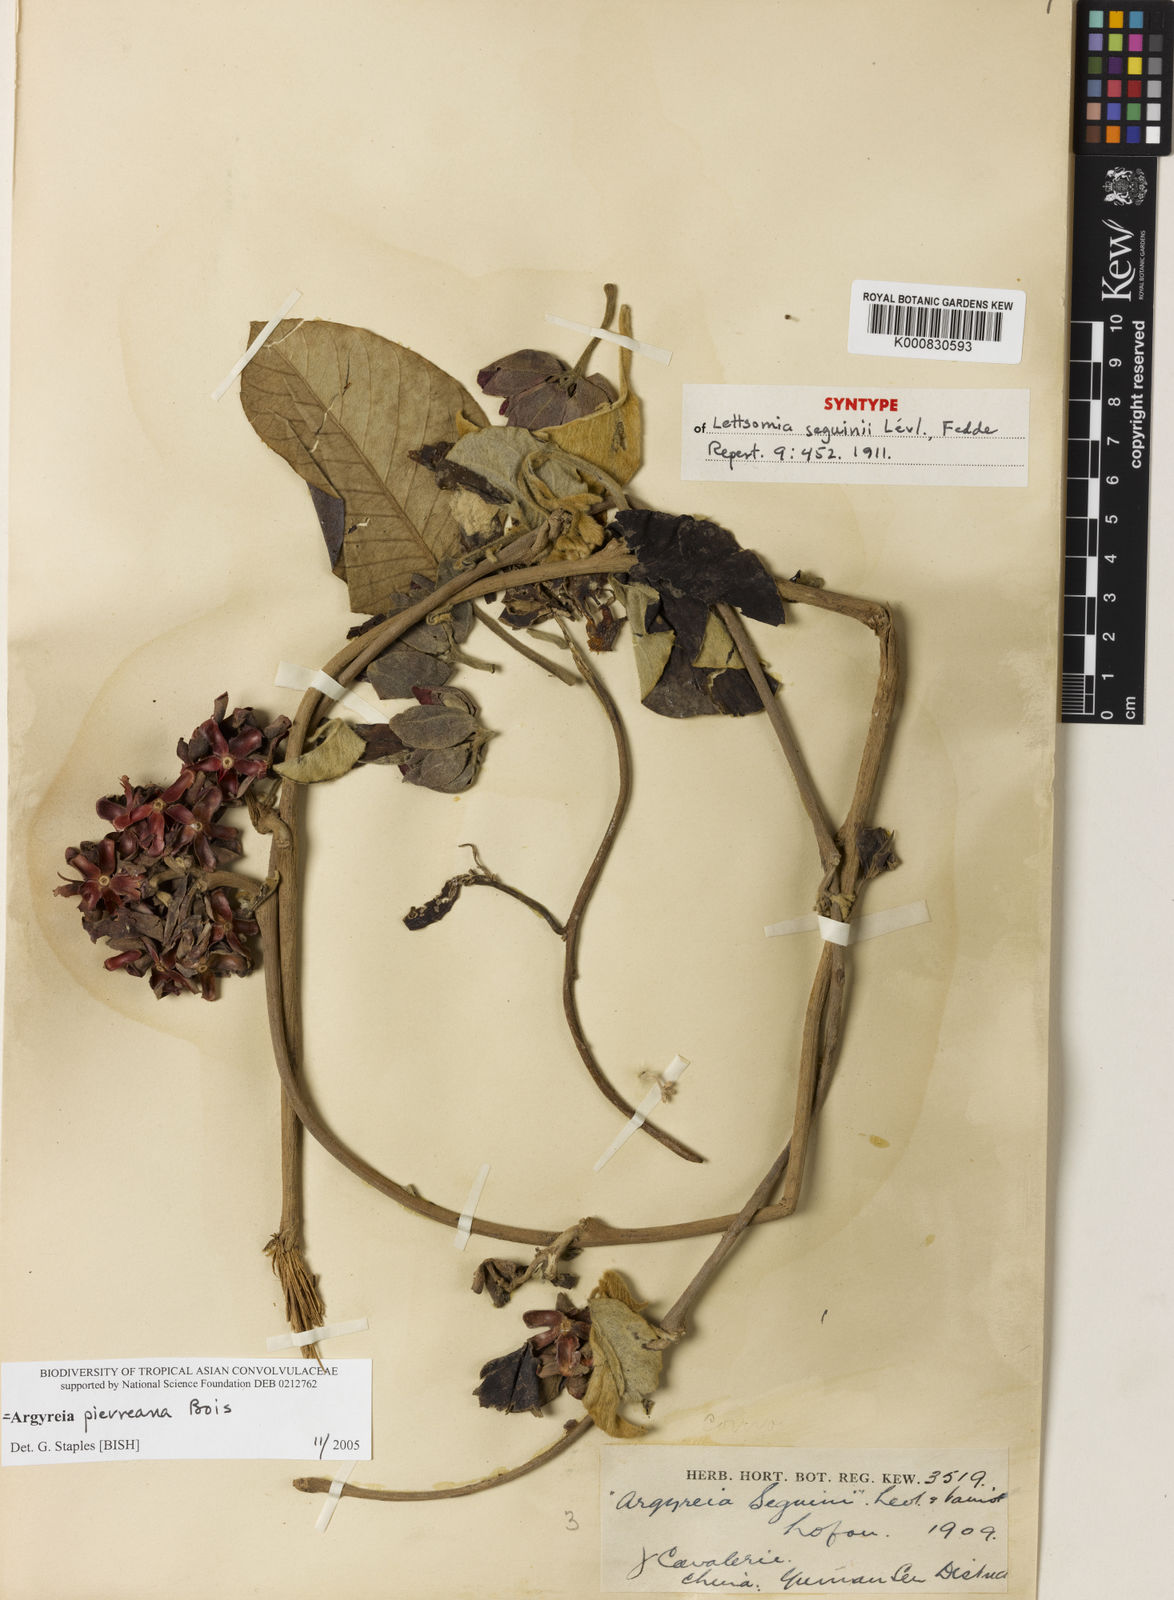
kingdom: Plantae
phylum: Tracheophyta
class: Magnoliopsida
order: Solanales
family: Convolvulaceae
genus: Argyreia
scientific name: Argyreia pierreana
